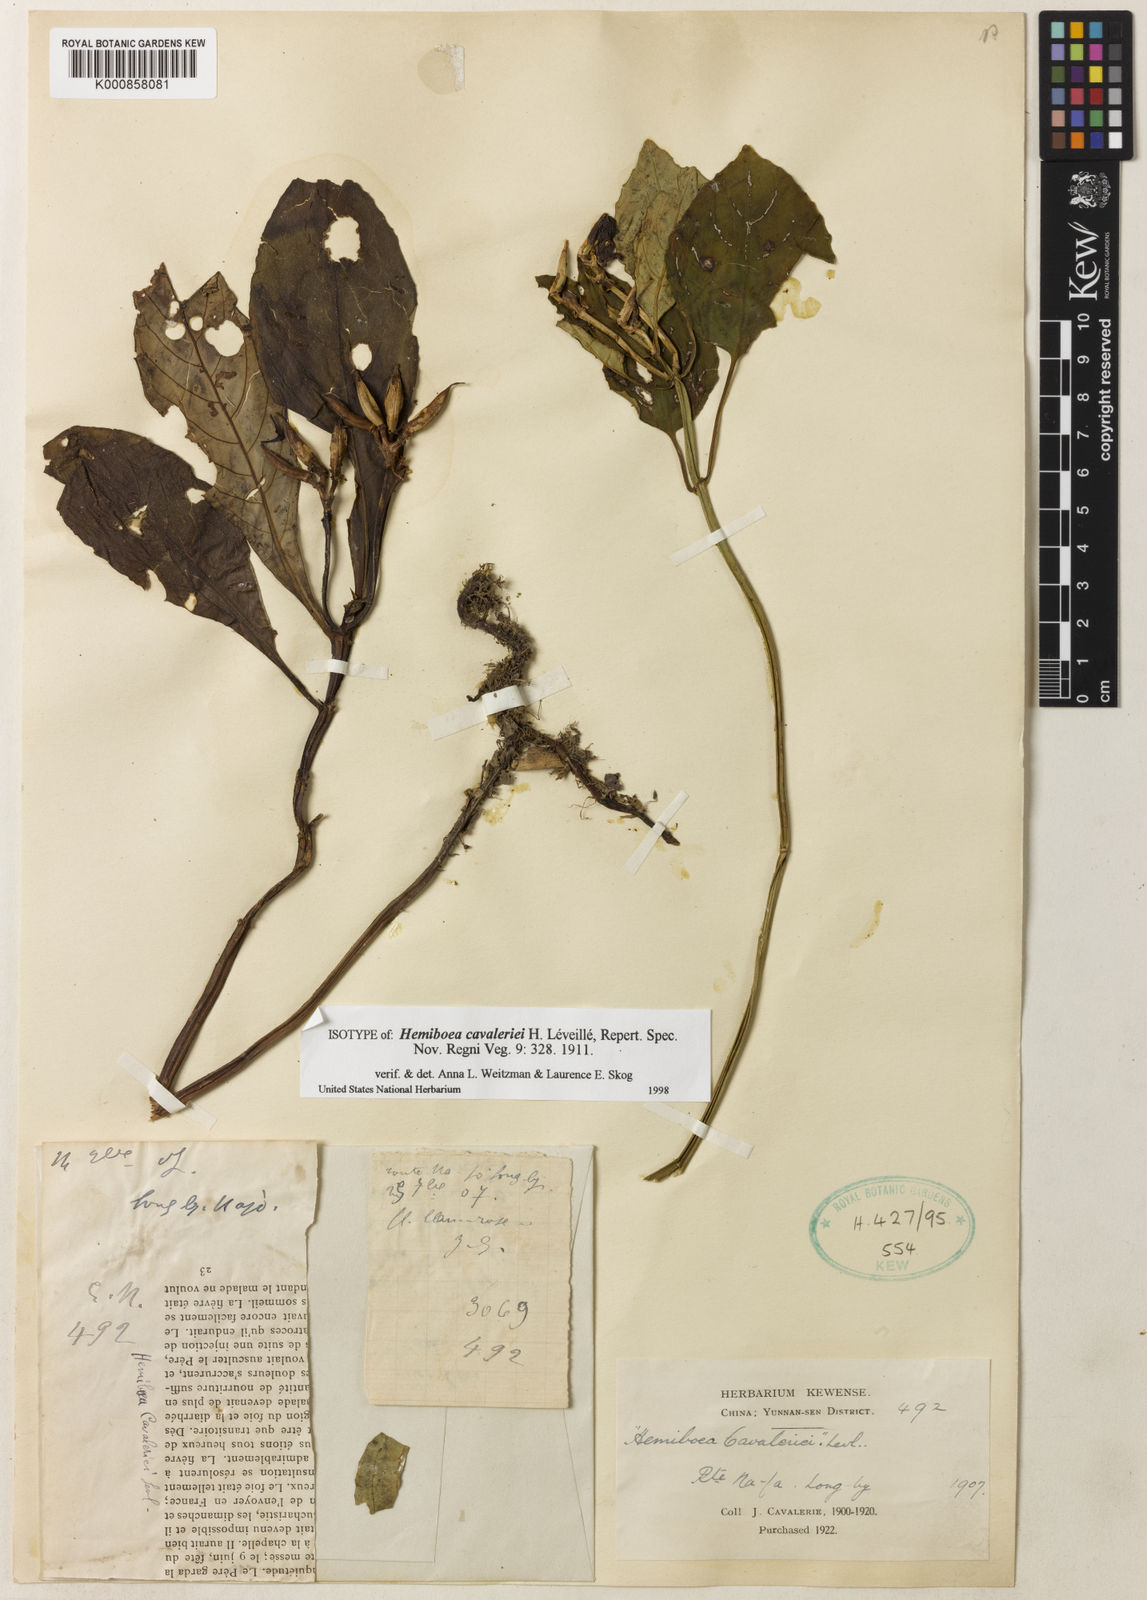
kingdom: Plantae
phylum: Tracheophyta
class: Magnoliopsida
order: Lamiales
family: Gesneriaceae
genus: Hemiboea
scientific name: Hemiboea
